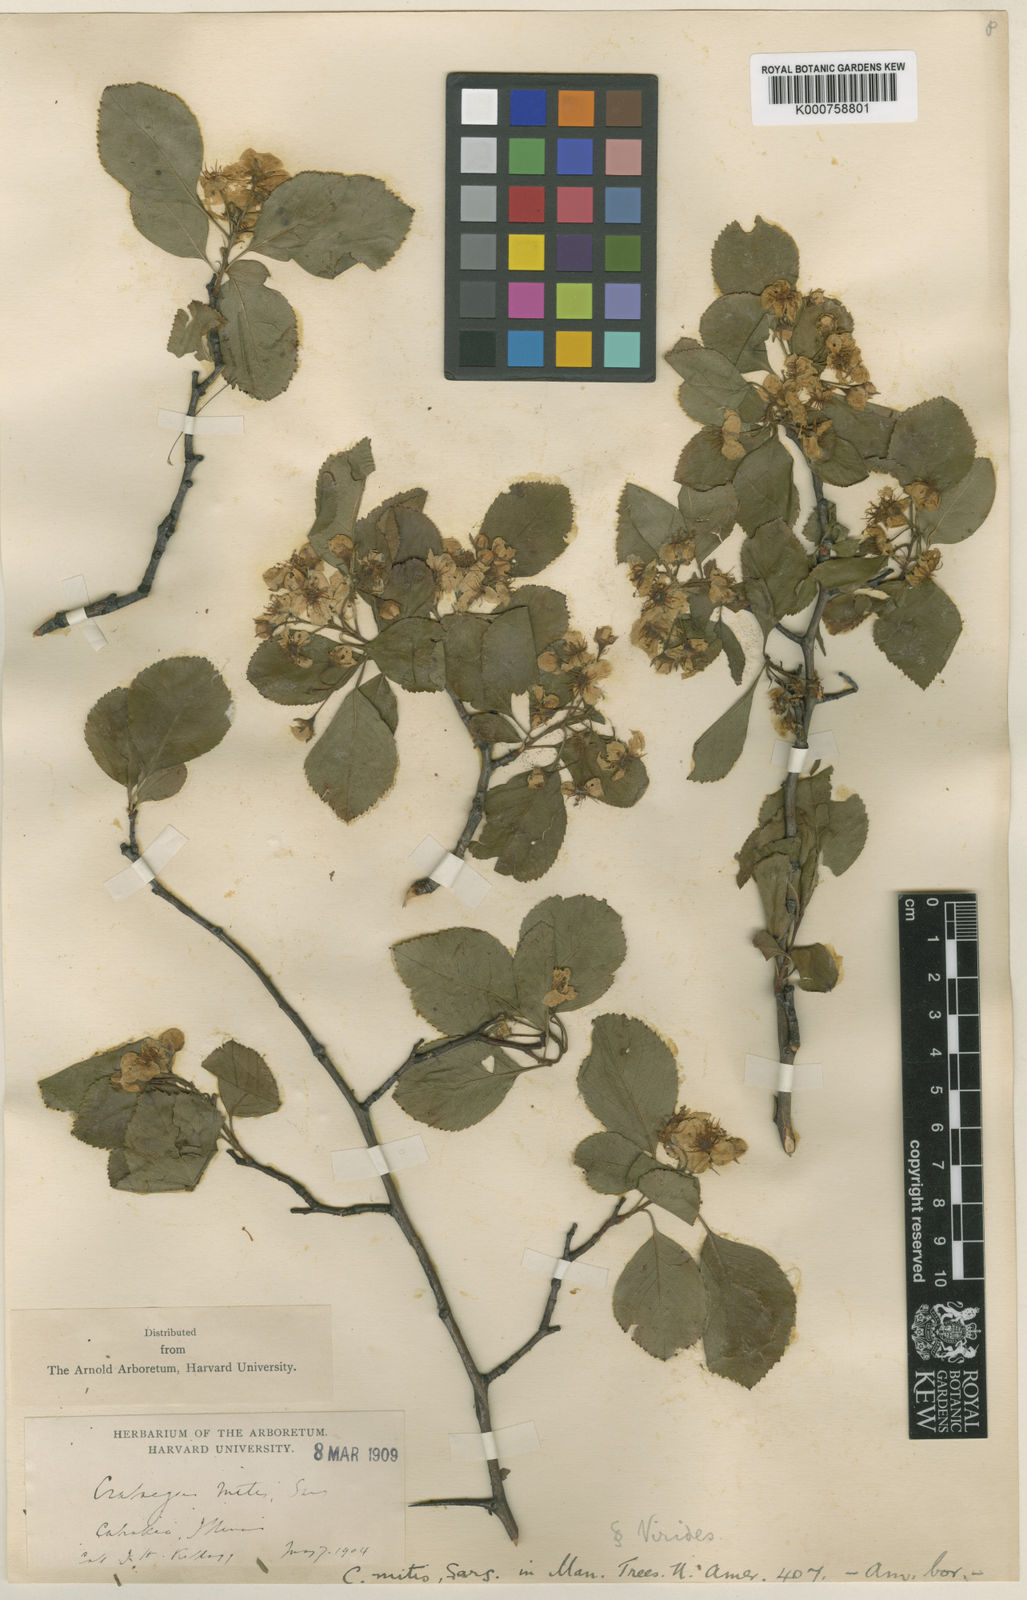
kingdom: Plantae
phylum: Tracheophyta
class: Magnoliopsida
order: Rosales
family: Rosaceae
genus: Crataegus
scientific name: Crataegus mitis
